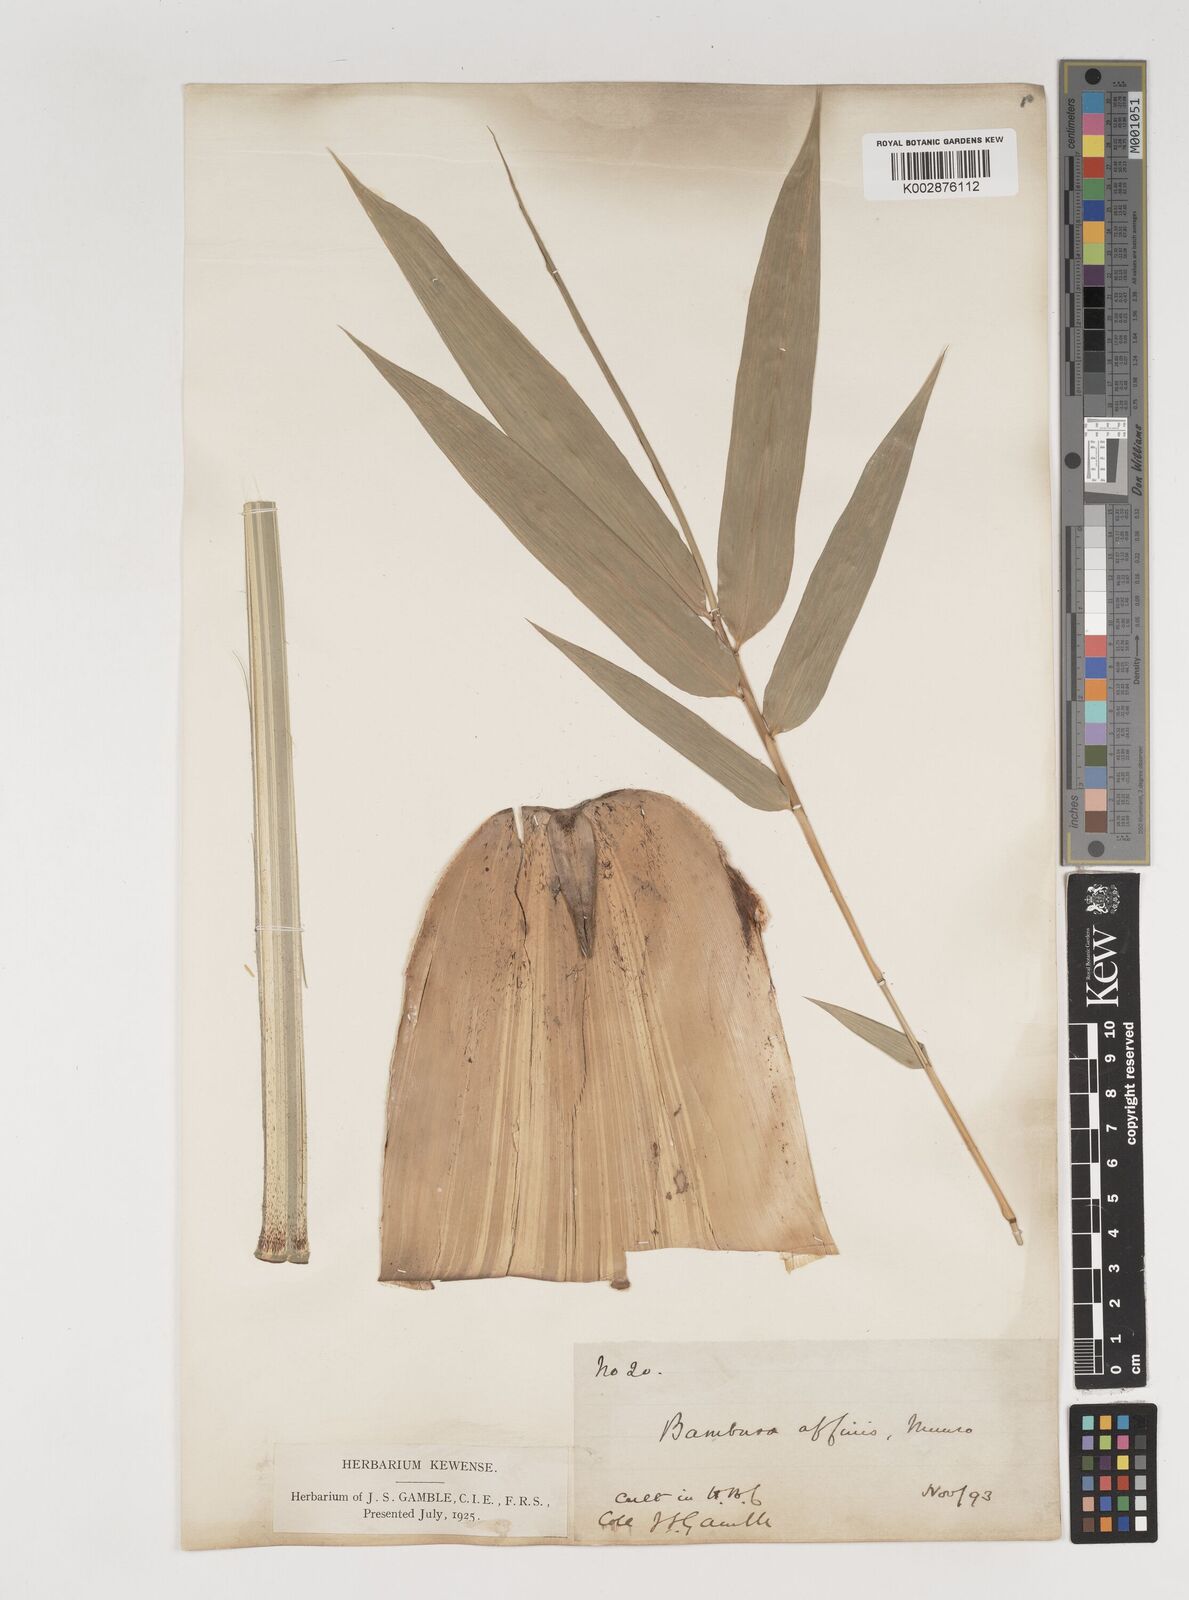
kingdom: Plantae
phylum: Tracheophyta
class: Liliopsida
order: Poales
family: Poaceae
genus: Bambusa
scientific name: Bambusa affinis
